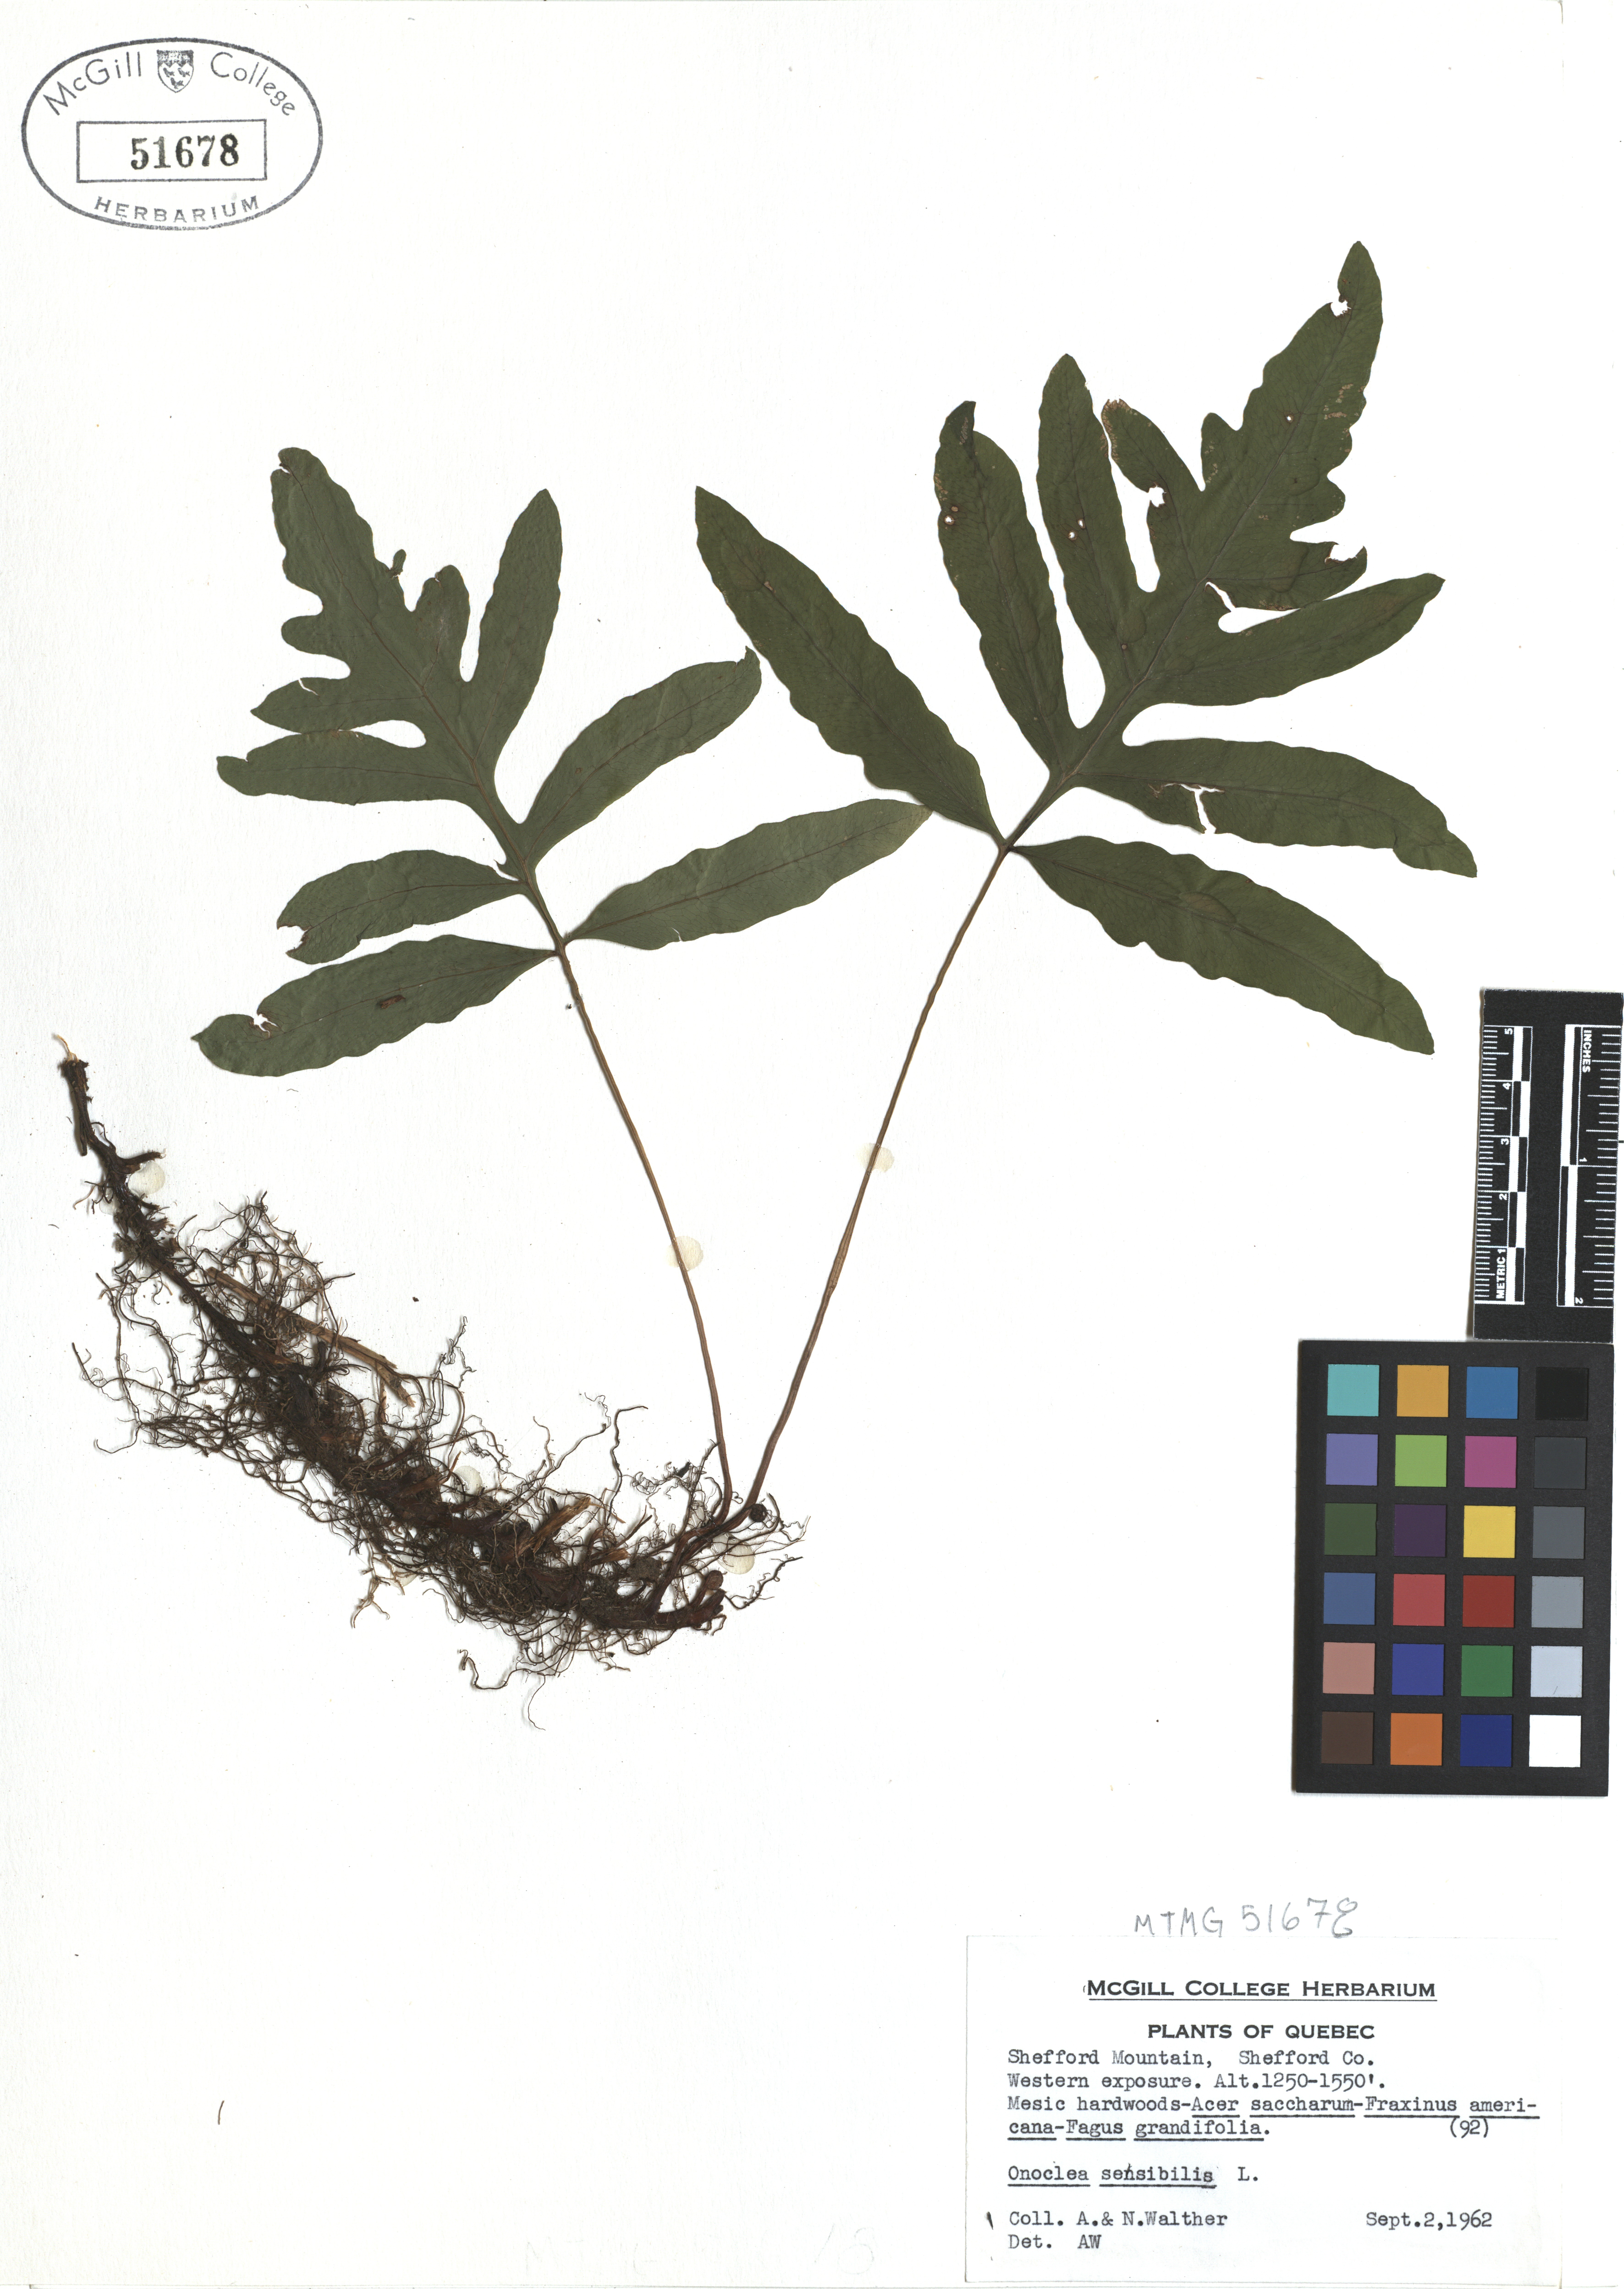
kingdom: Plantae
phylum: Tracheophyta
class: Polypodiopsida
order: Polypodiales
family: Onocleaceae
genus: Onoclea
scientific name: Onoclea sensibilis
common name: Sensitive fern
